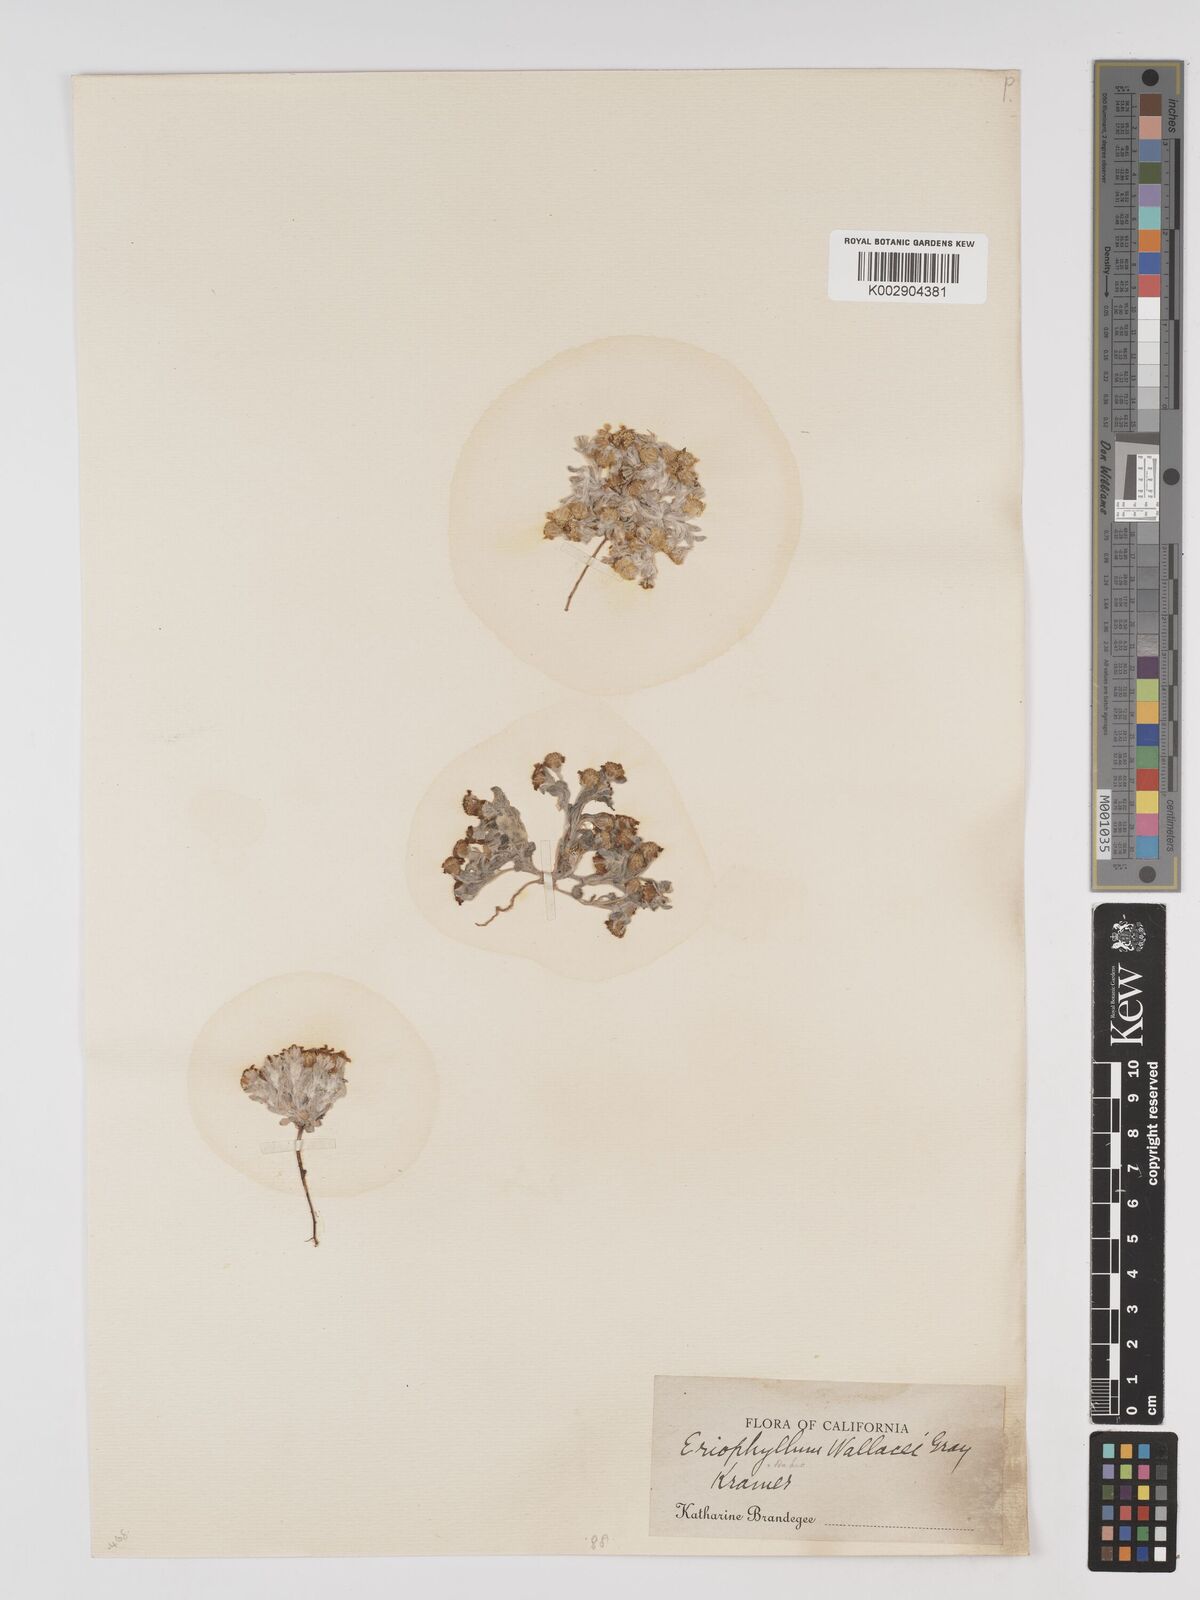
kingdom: Plantae
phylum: Tracheophyta
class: Magnoliopsida
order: Asterales
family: Asteraceae
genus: Eriophyllum
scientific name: Eriophyllum lanosum
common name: White easter-bonnets
